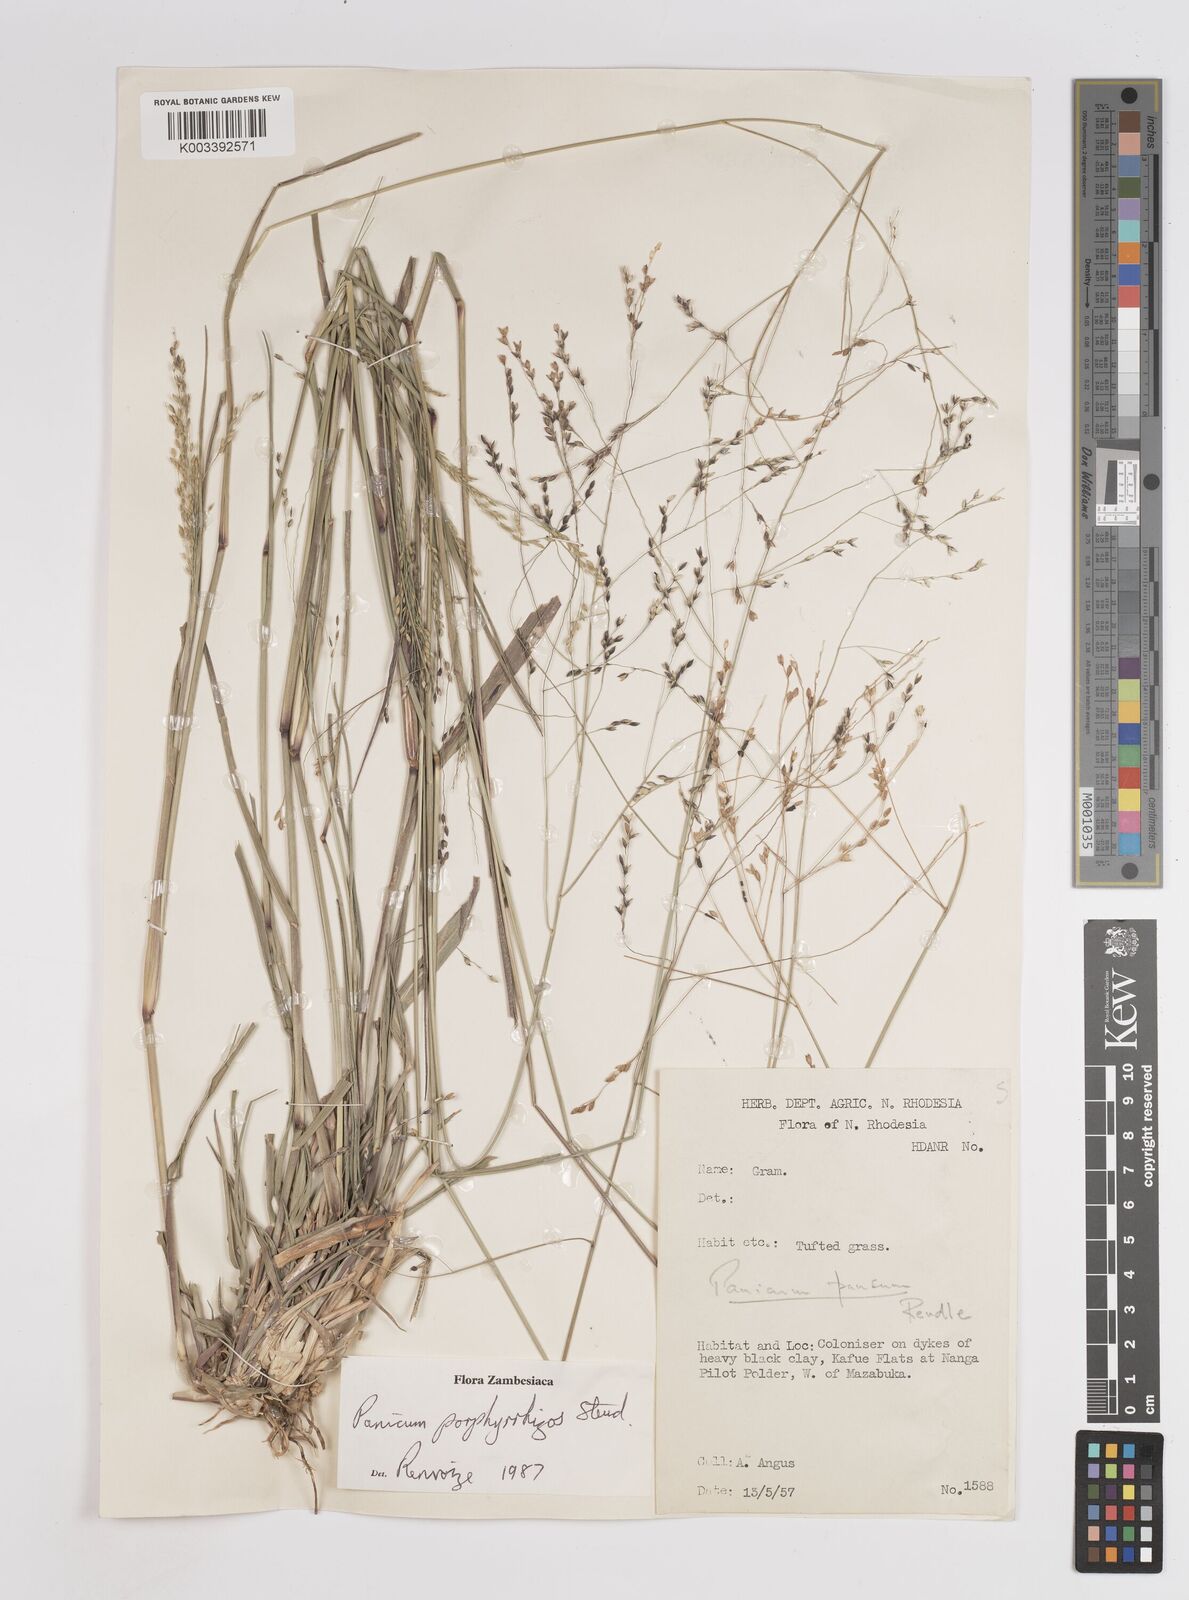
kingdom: Plantae
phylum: Tracheophyta
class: Liliopsida
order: Poales
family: Poaceae
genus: Panicum
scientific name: Panicum porphyrrhizos
